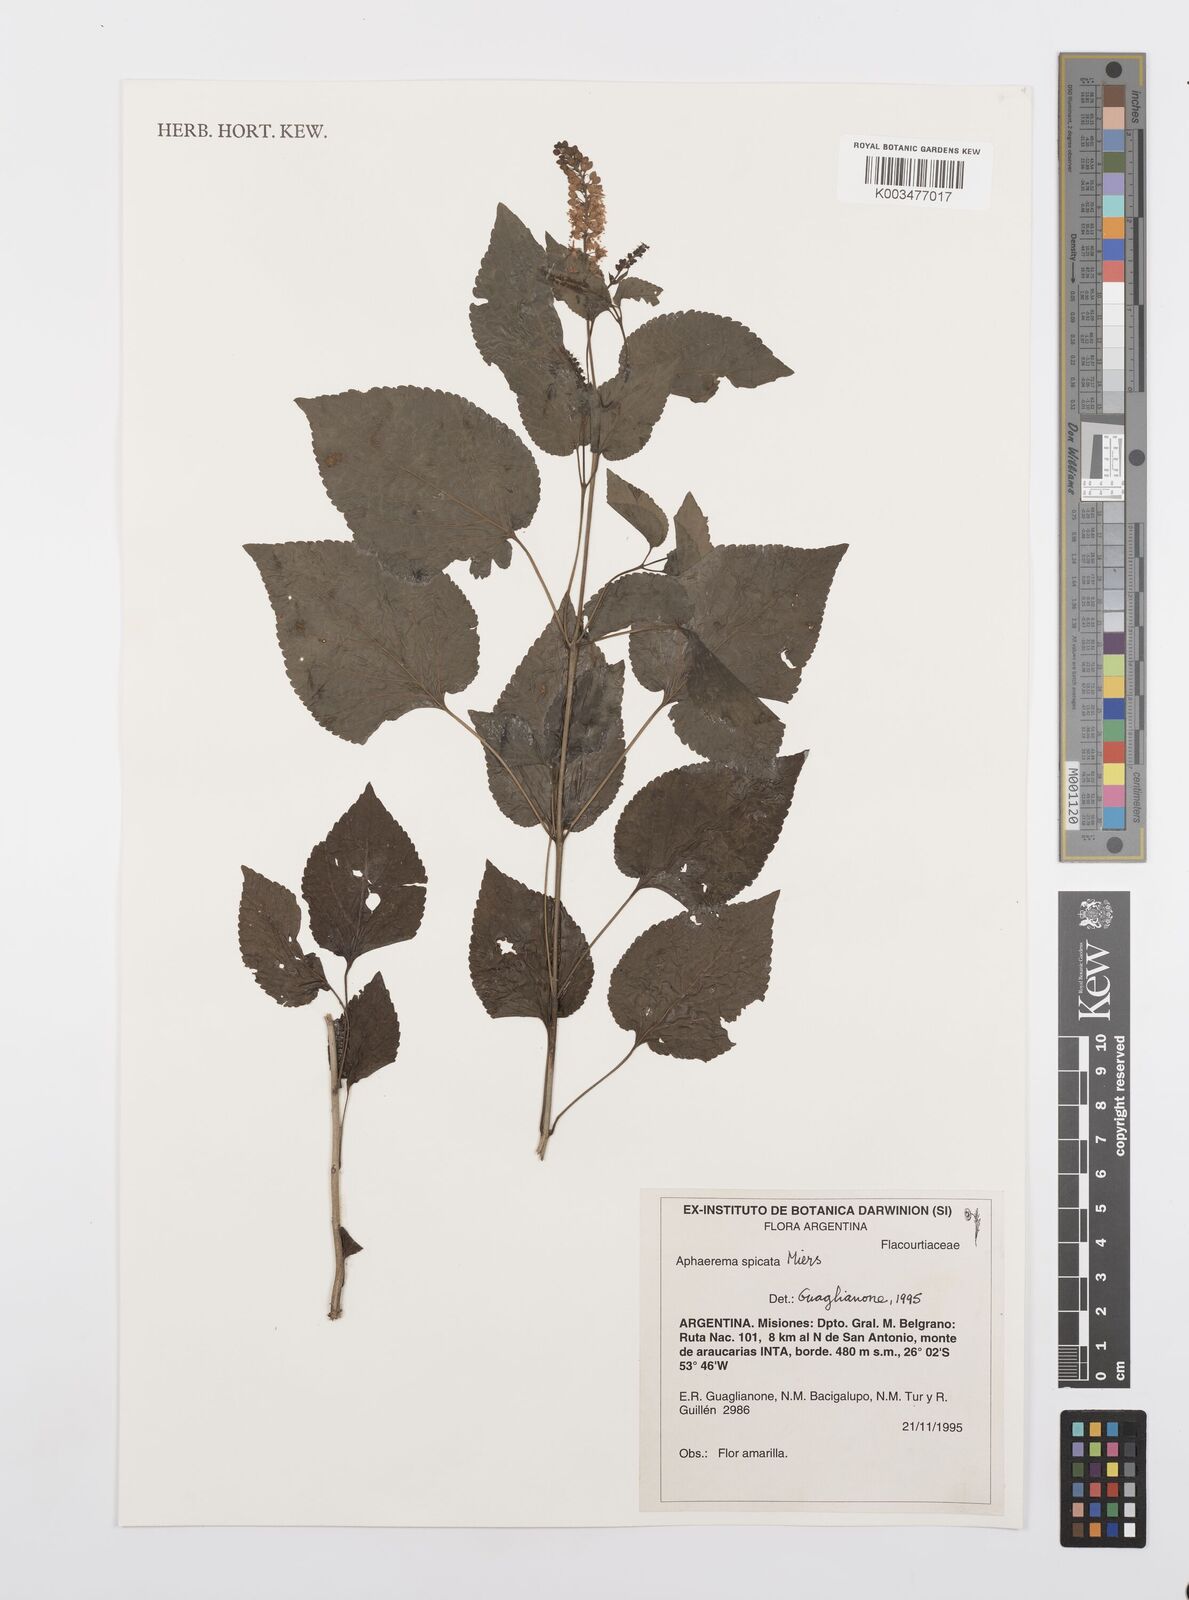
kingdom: Plantae
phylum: Tracheophyta
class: Magnoliopsida
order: Malpighiales
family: Salicaceae
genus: Abatia
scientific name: Abatia angeliana
